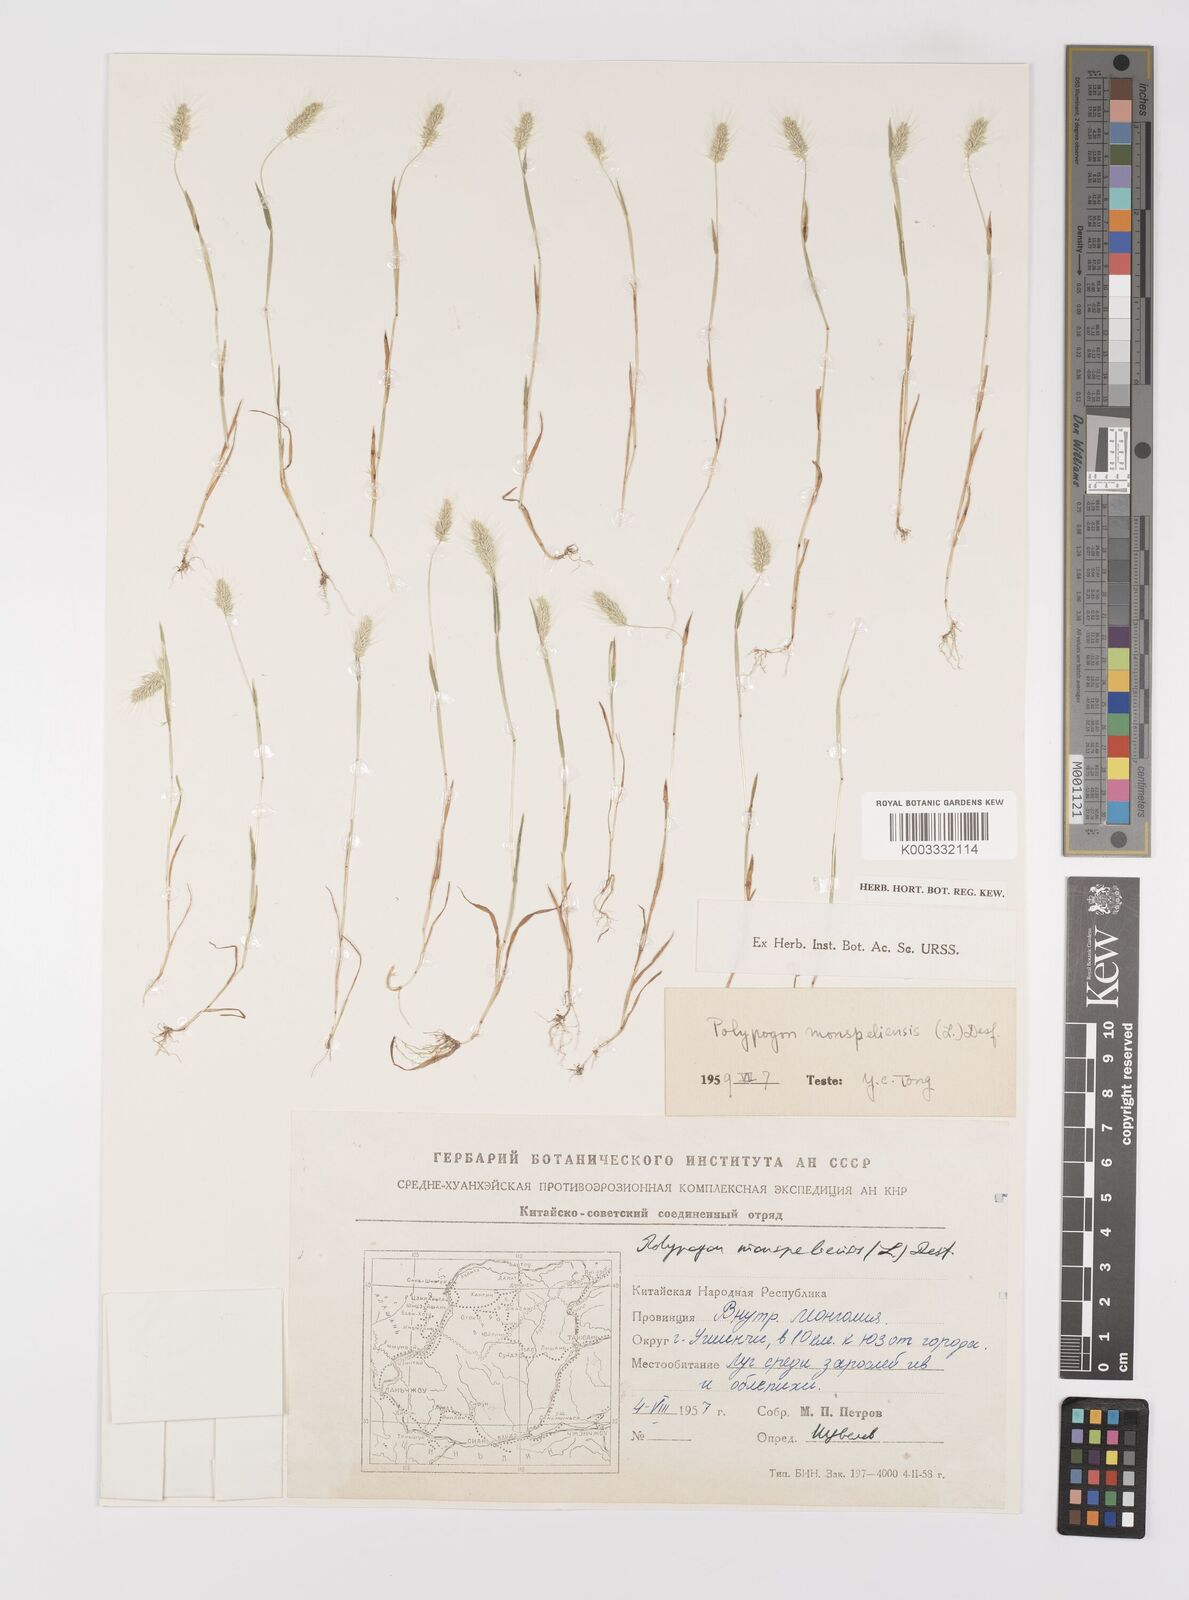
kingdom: Plantae
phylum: Tracheophyta
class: Liliopsida
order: Poales
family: Poaceae
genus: Polypogon
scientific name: Polypogon monspeliensis
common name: Annual rabbitsfoot grass
